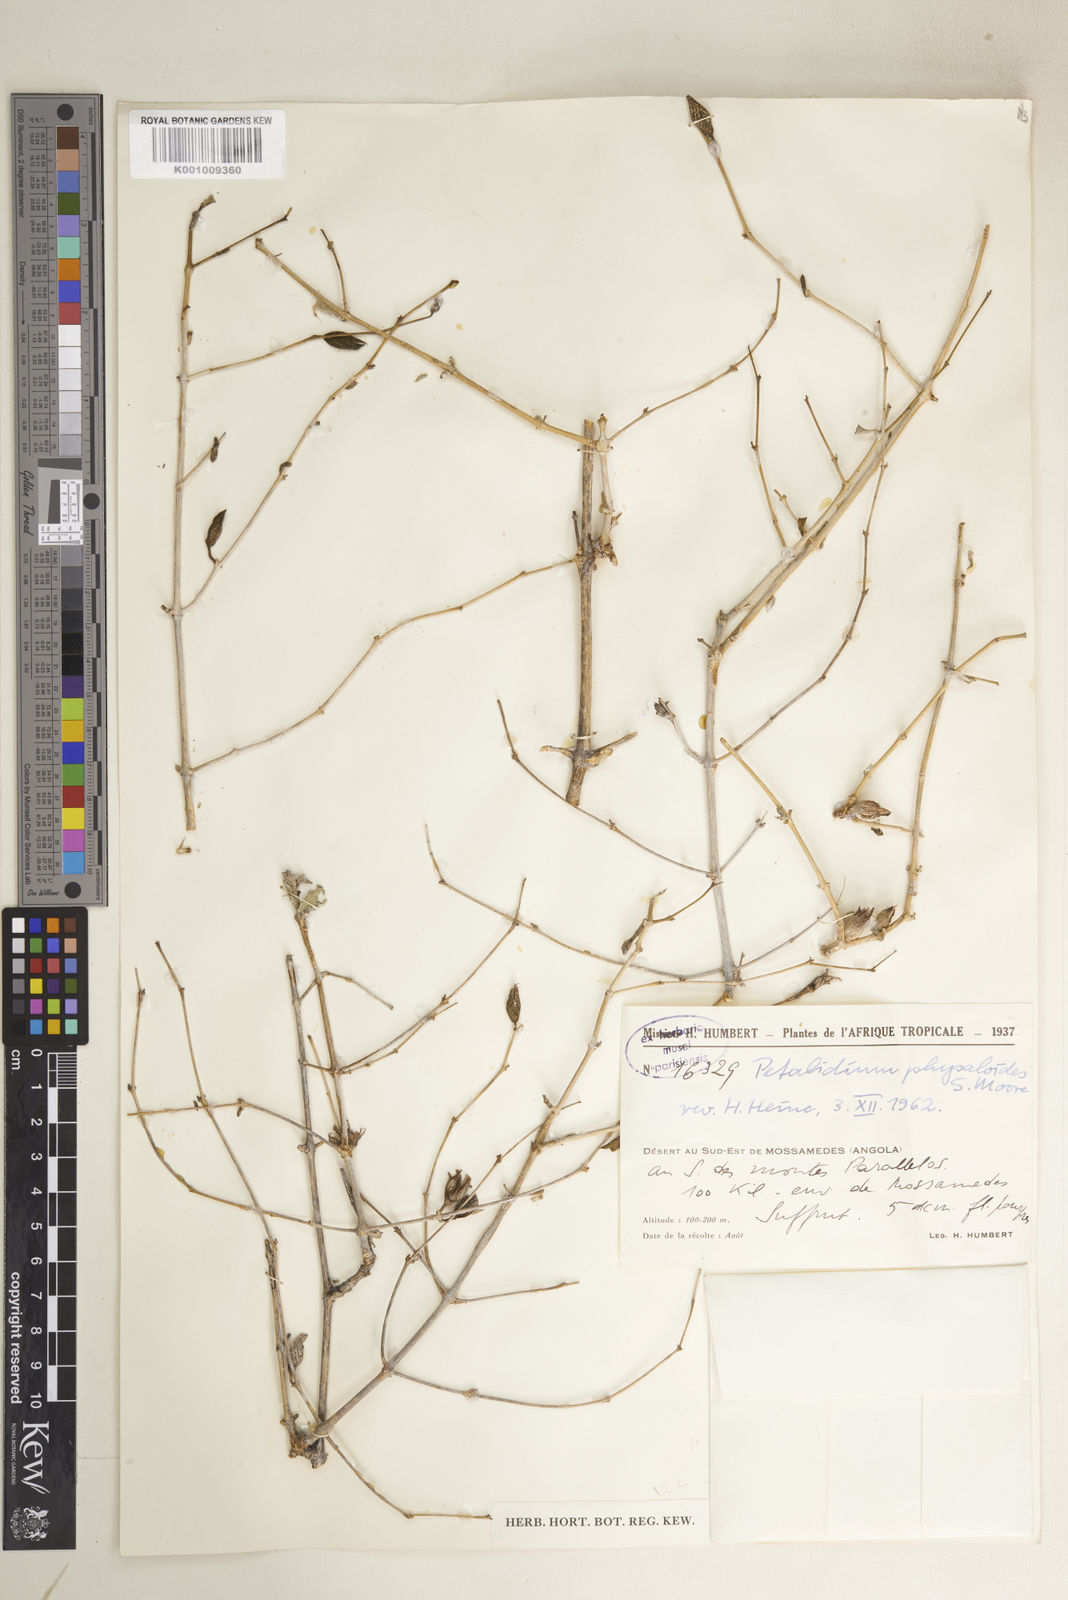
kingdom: Plantae
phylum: Tracheophyta
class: Magnoliopsida
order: Lamiales
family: Acanthaceae
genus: Petalidium
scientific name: Petalidium physaloides
